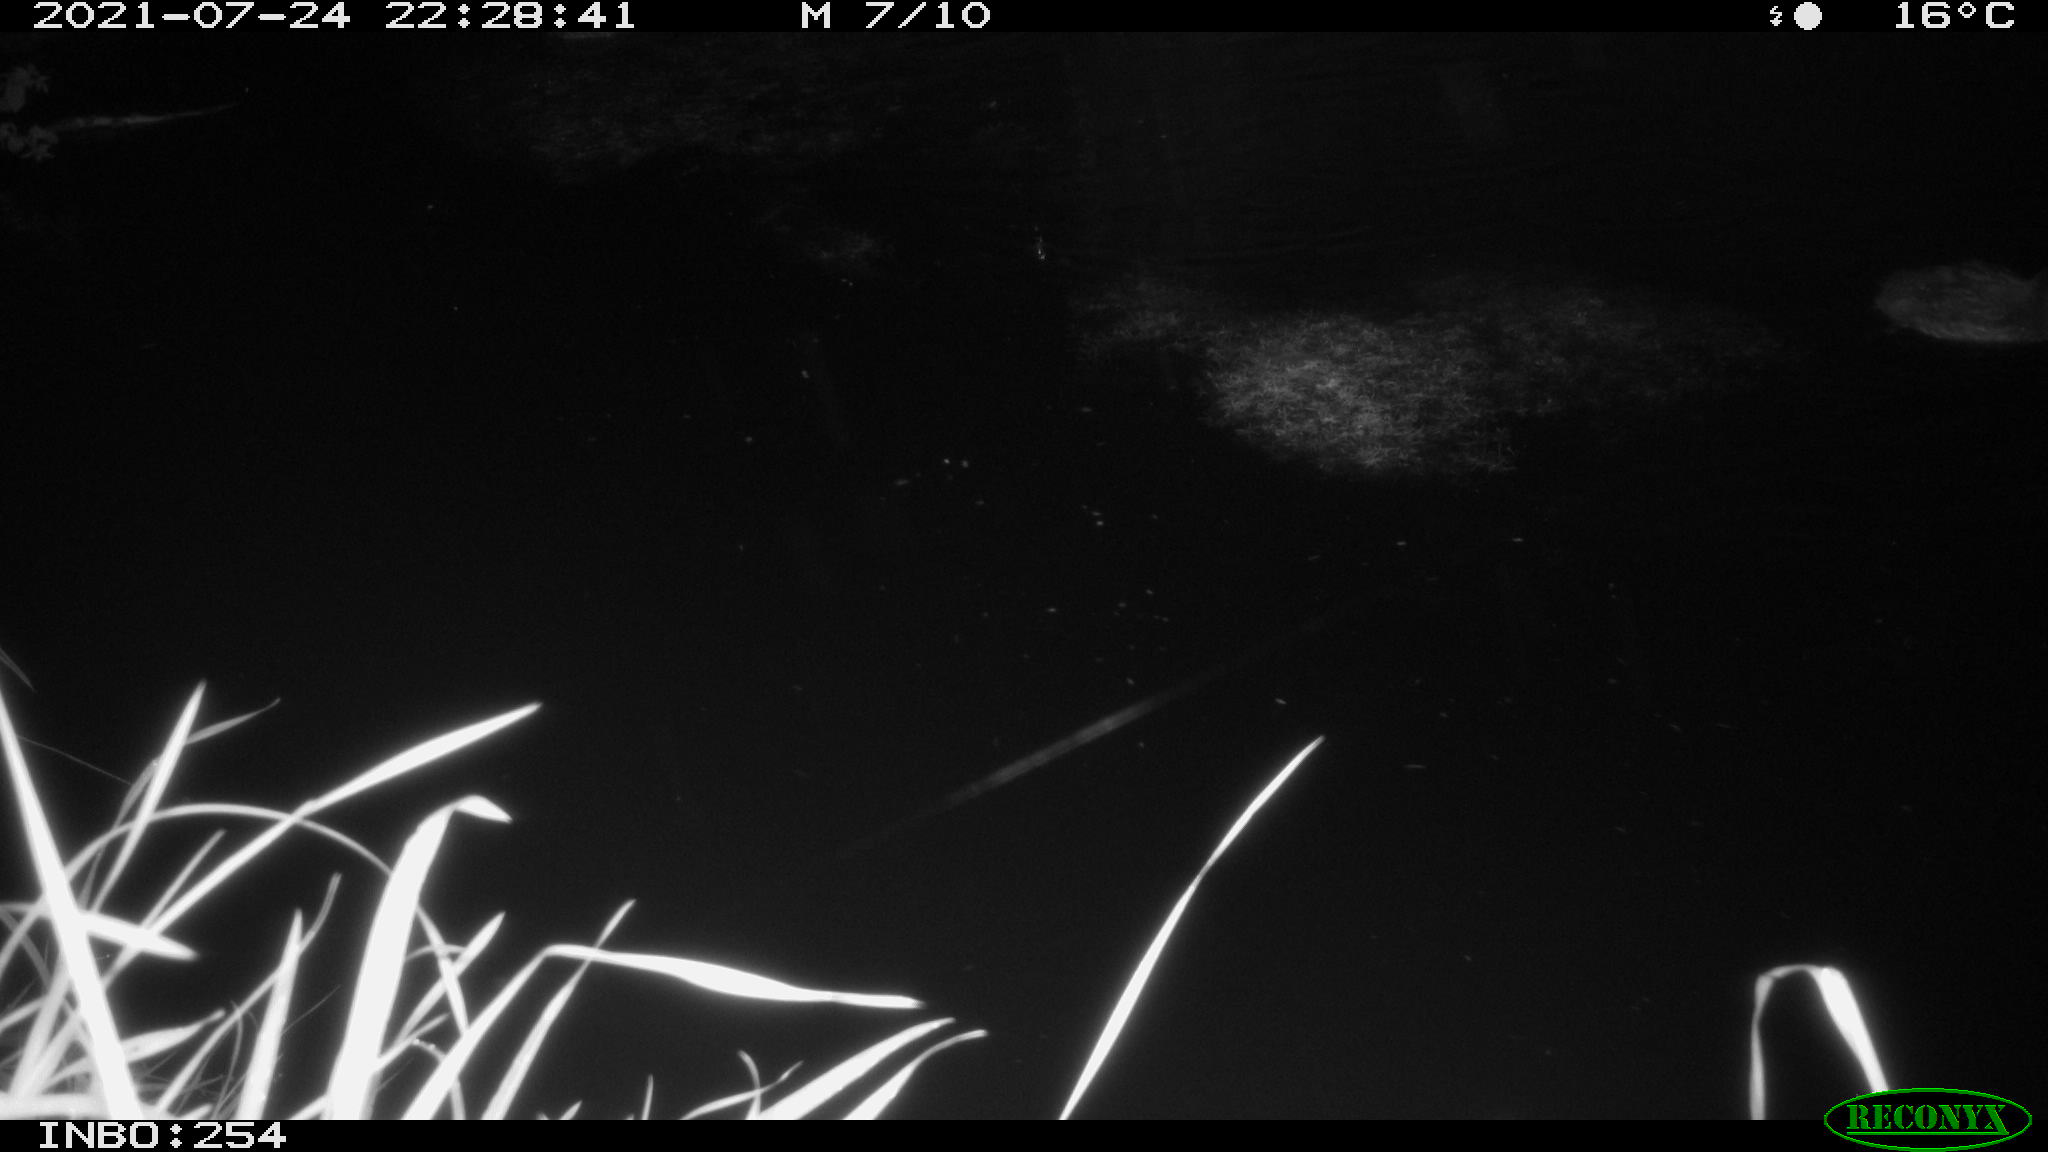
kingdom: Animalia
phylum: Chordata
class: Aves
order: Anseriformes
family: Anatidae
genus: Anas
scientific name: Anas platyrhynchos
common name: Mallard
